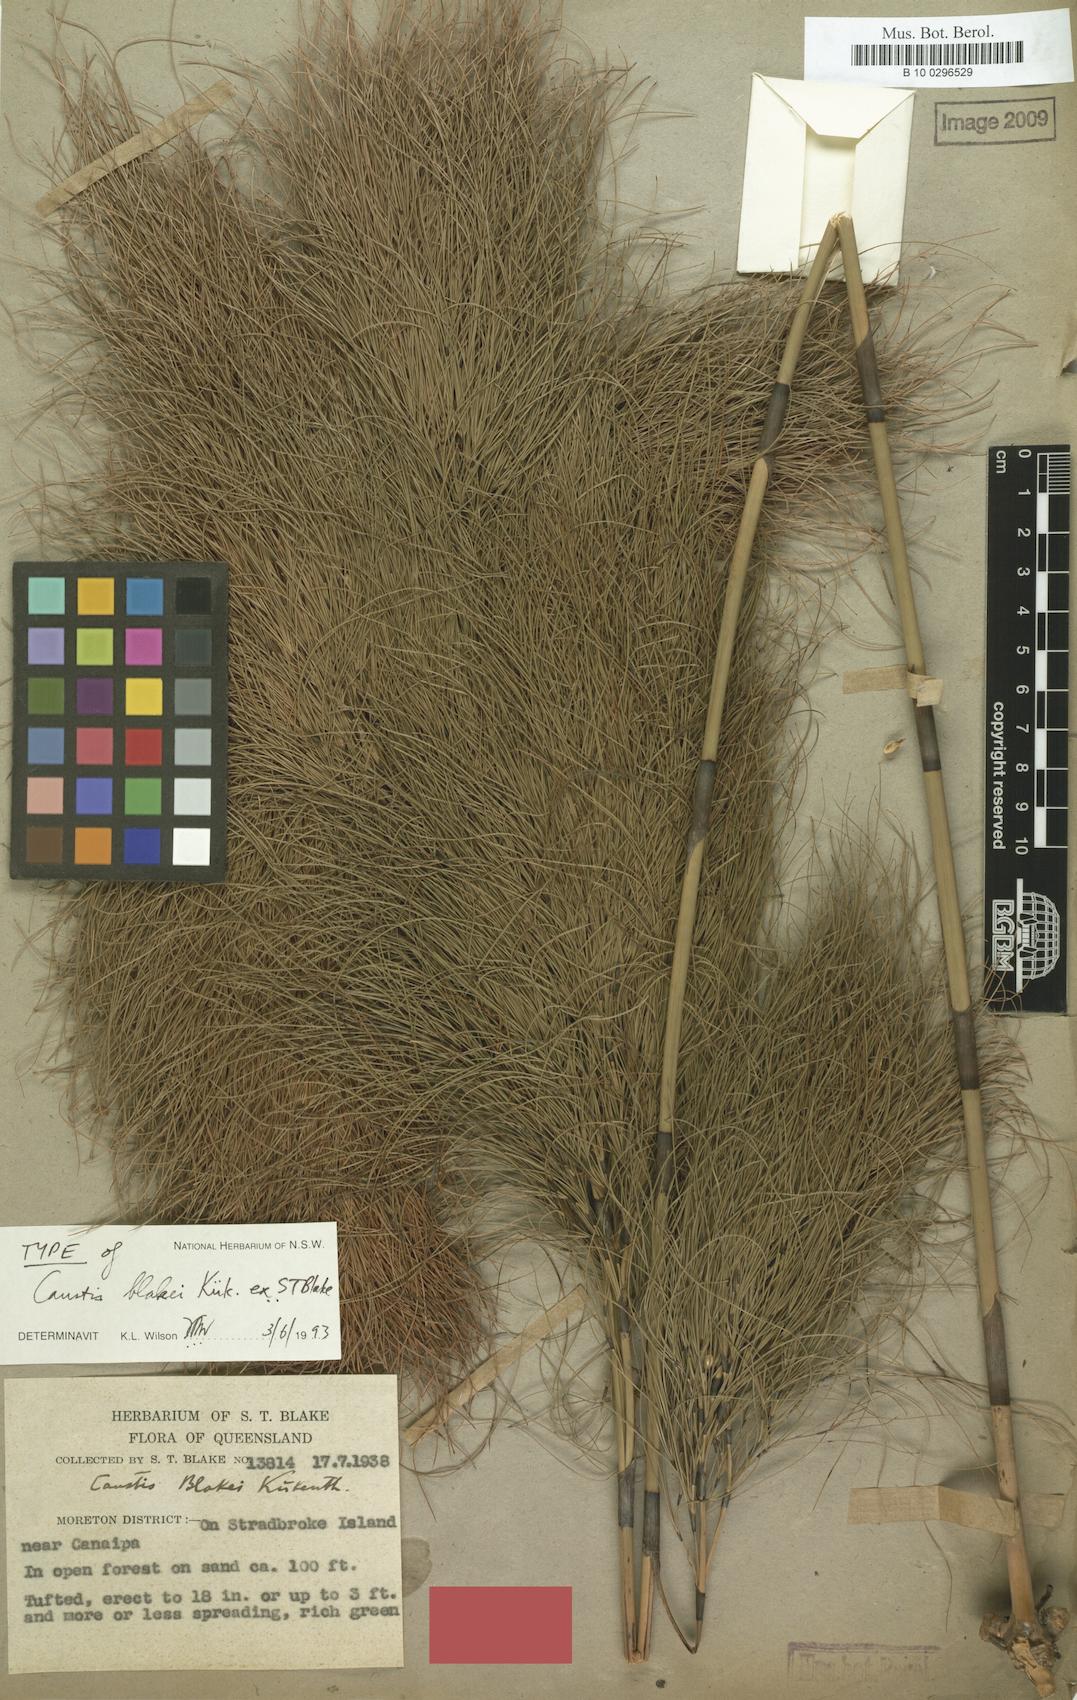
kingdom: Plantae
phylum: Tracheophyta
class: Liliopsida
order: Poales
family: Cyperaceae
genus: Caustis
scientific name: Caustis blakei
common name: Foxtail-fern
